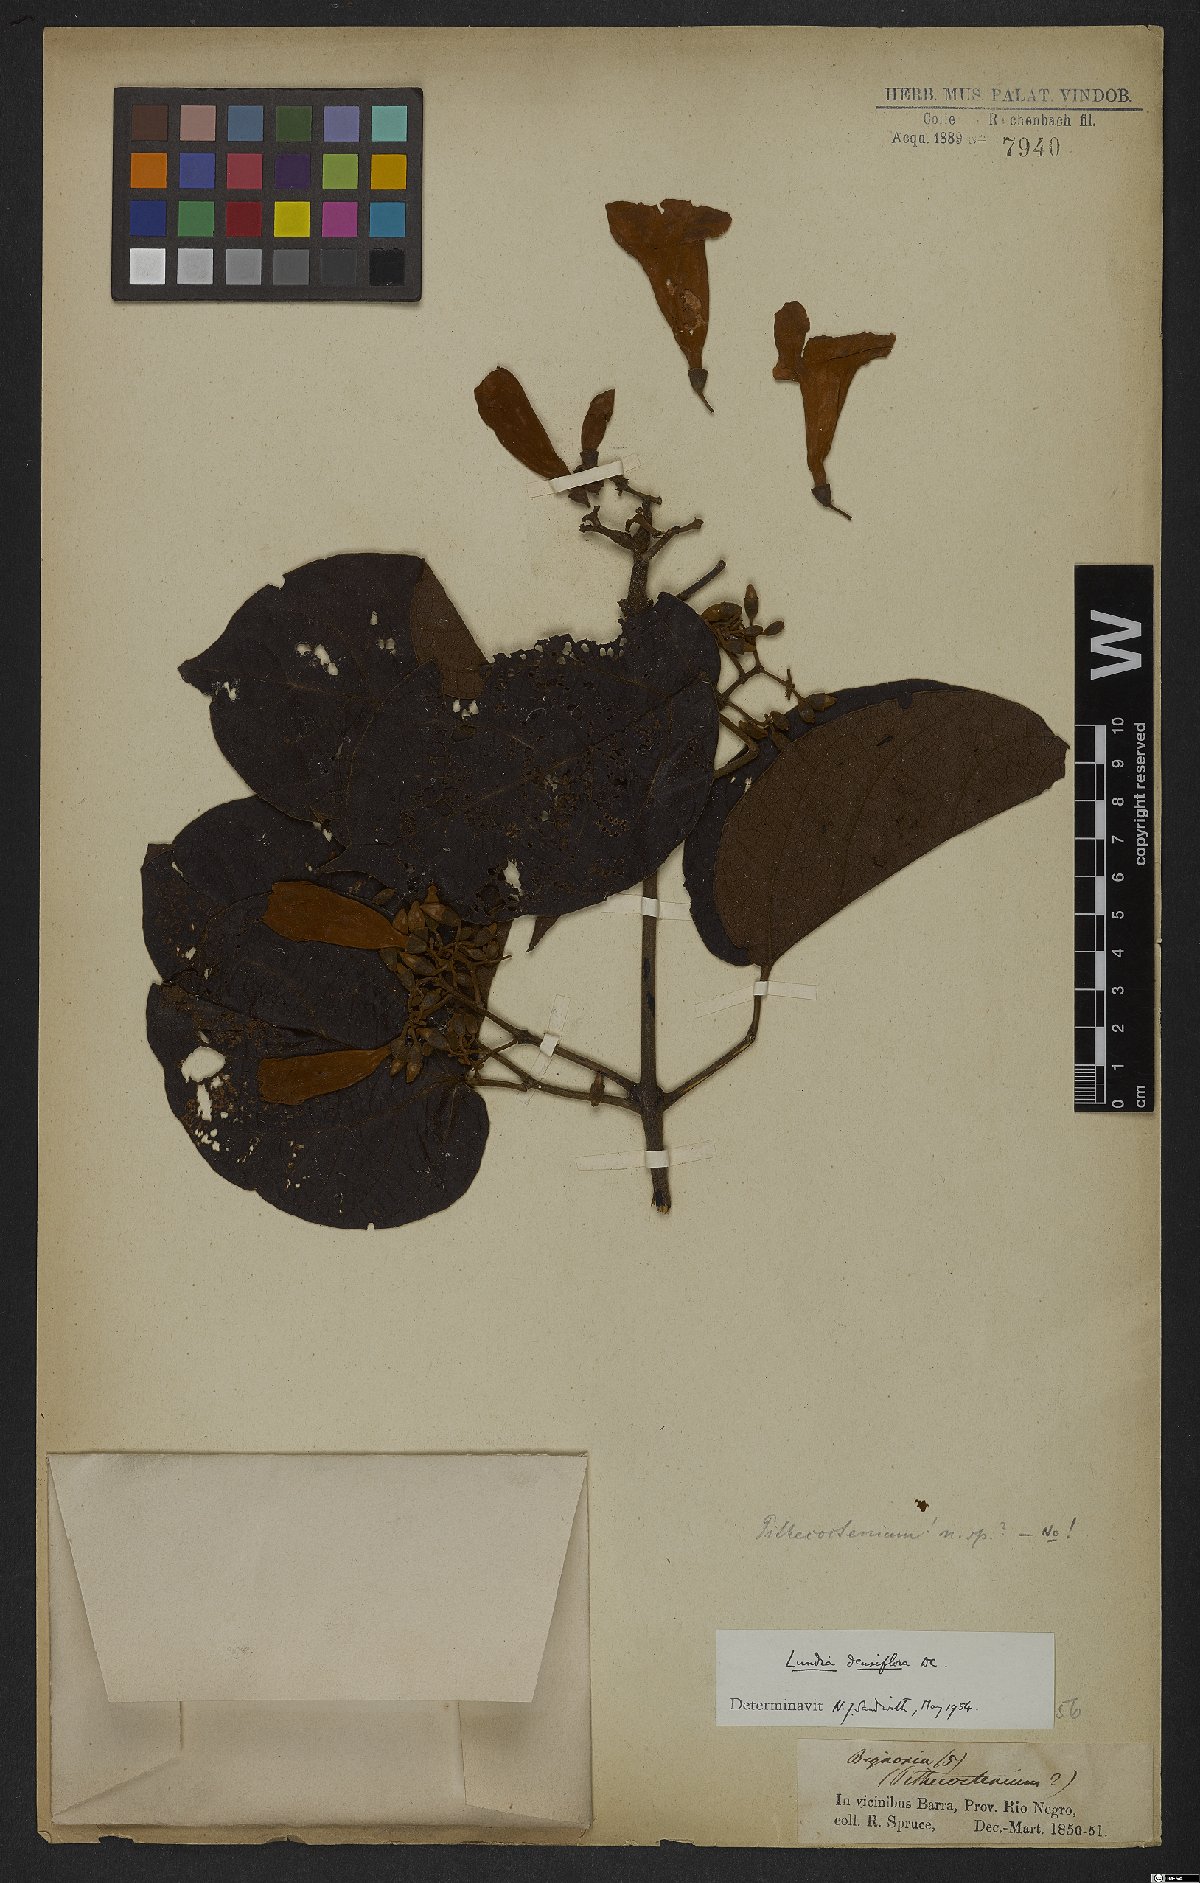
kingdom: Plantae
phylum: Tracheophyta
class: Magnoliopsida
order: Lamiales
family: Bignoniaceae
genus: Lundia
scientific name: Lundia densiflora
